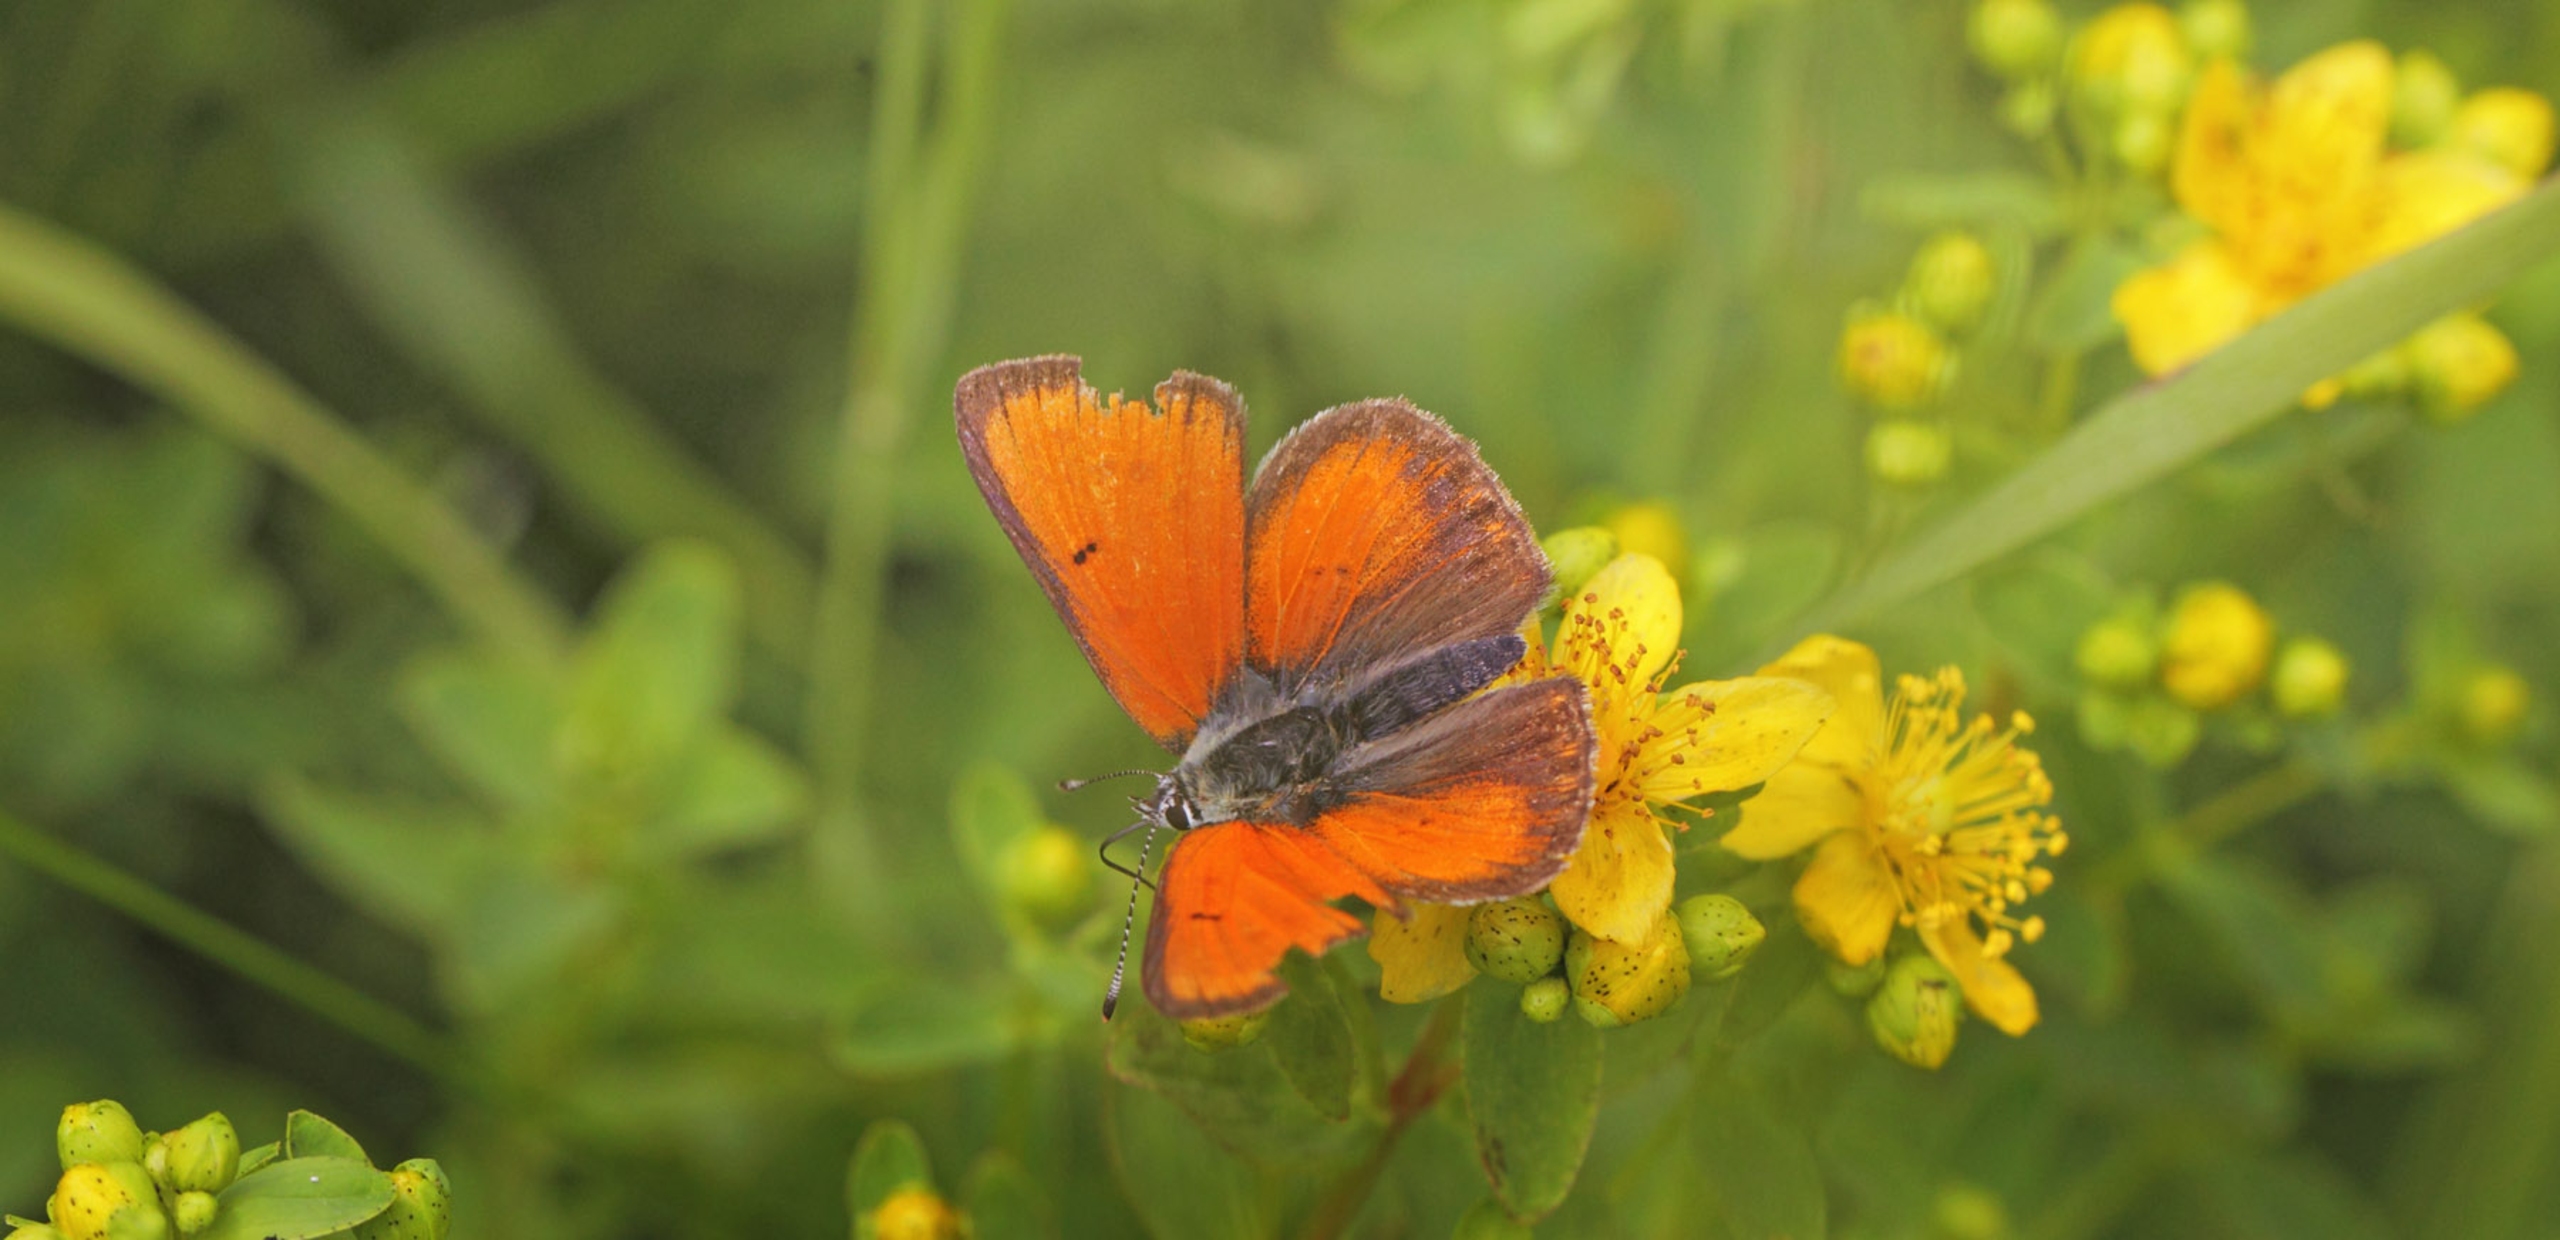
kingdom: Animalia
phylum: Arthropoda
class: Insecta
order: Lepidoptera
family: Lycaenidae
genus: Palaeochrysophanus
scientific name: Palaeochrysophanus hippothoe
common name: Violetrandet ildfugl
